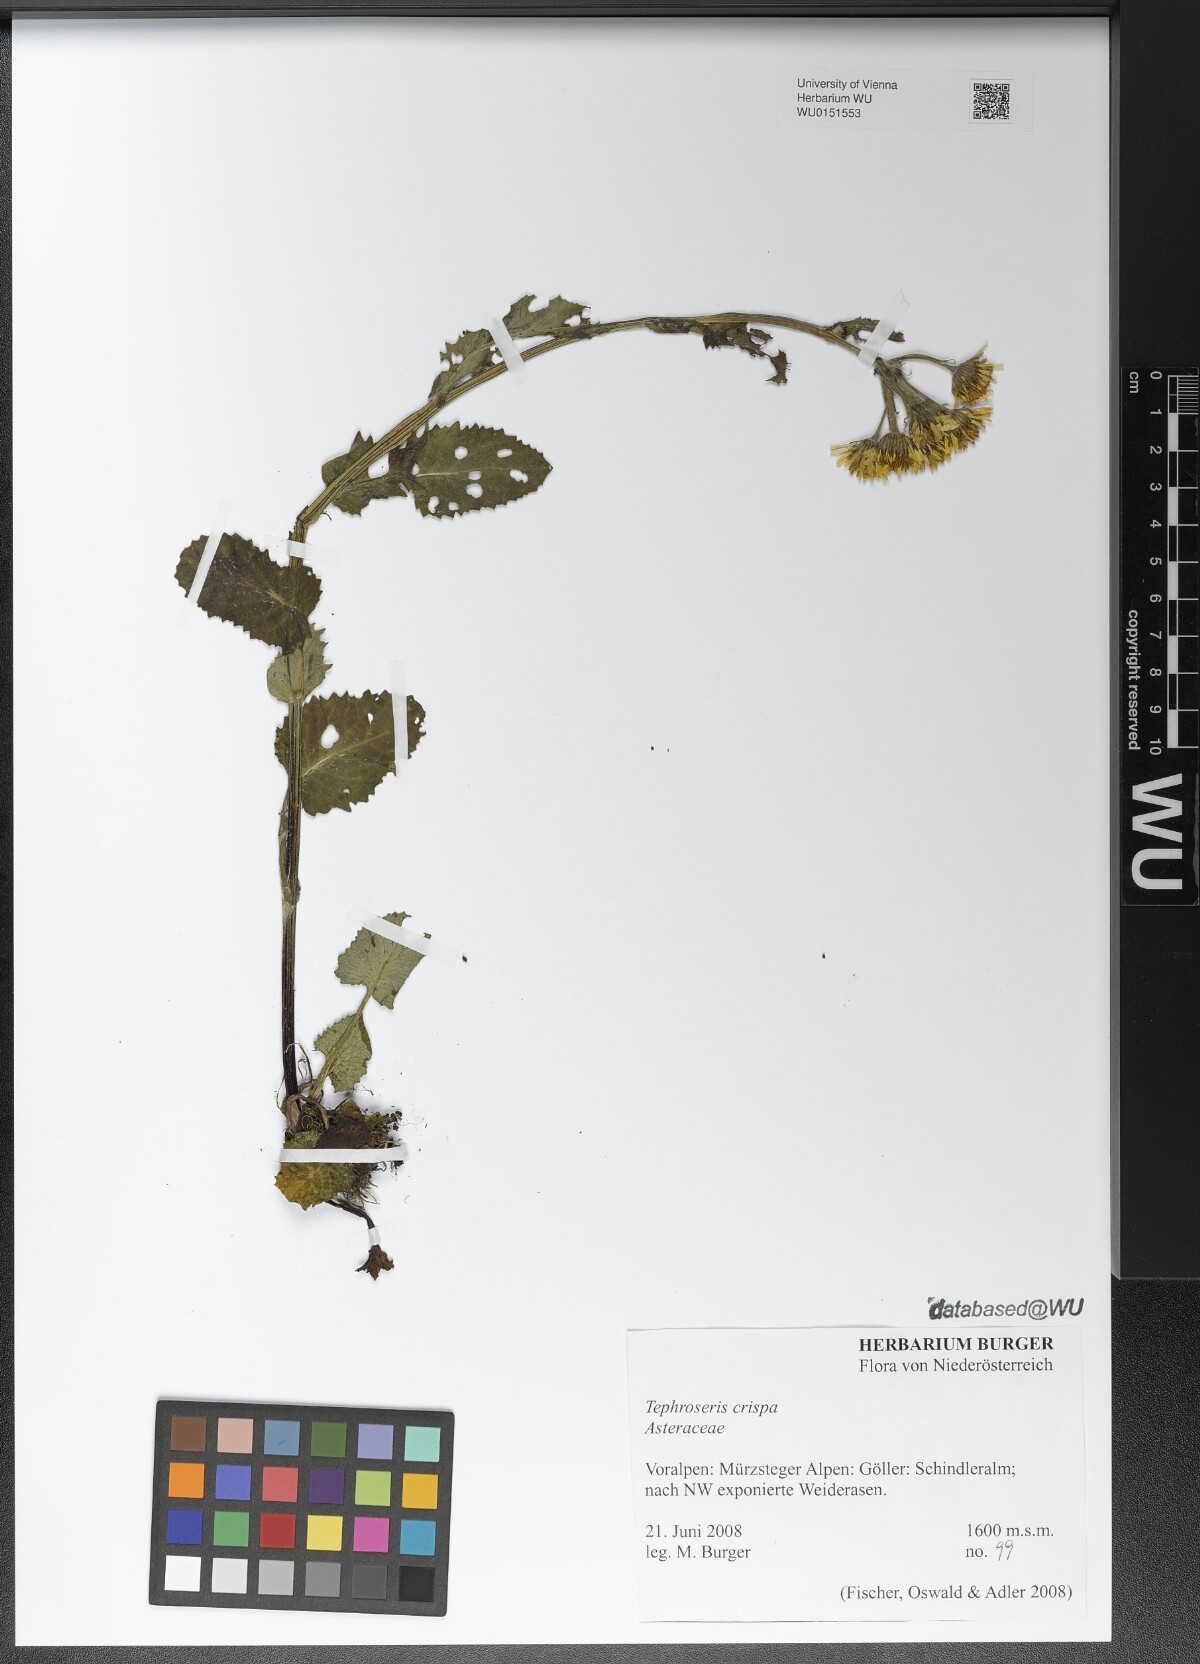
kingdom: Plantae
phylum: Tracheophyta
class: Magnoliopsida
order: Asterales
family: Asteraceae
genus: Tephroseris
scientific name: Tephroseris crispa
